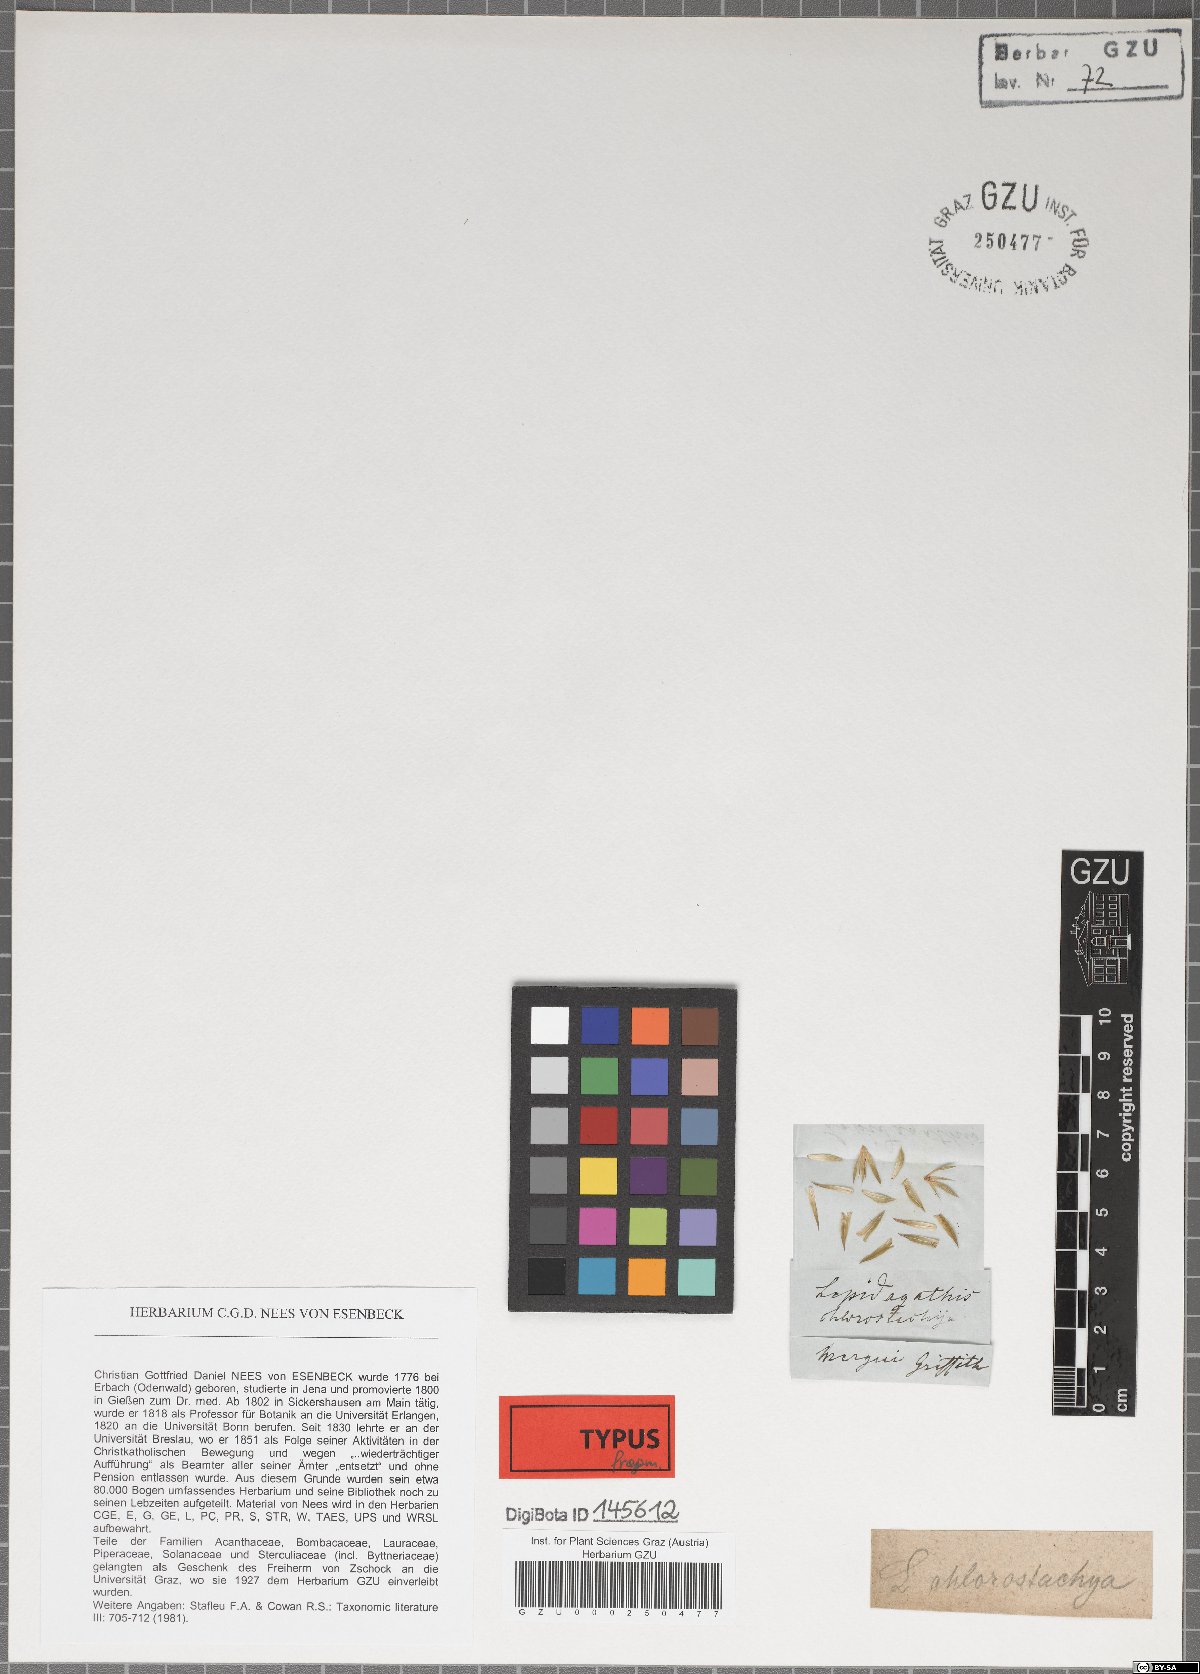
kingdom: Plantae
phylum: Tracheophyta
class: Magnoliopsida
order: Lamiales
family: Acanthaceae
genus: Lepidagathis
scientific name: Lepidagathis chlorostachya
